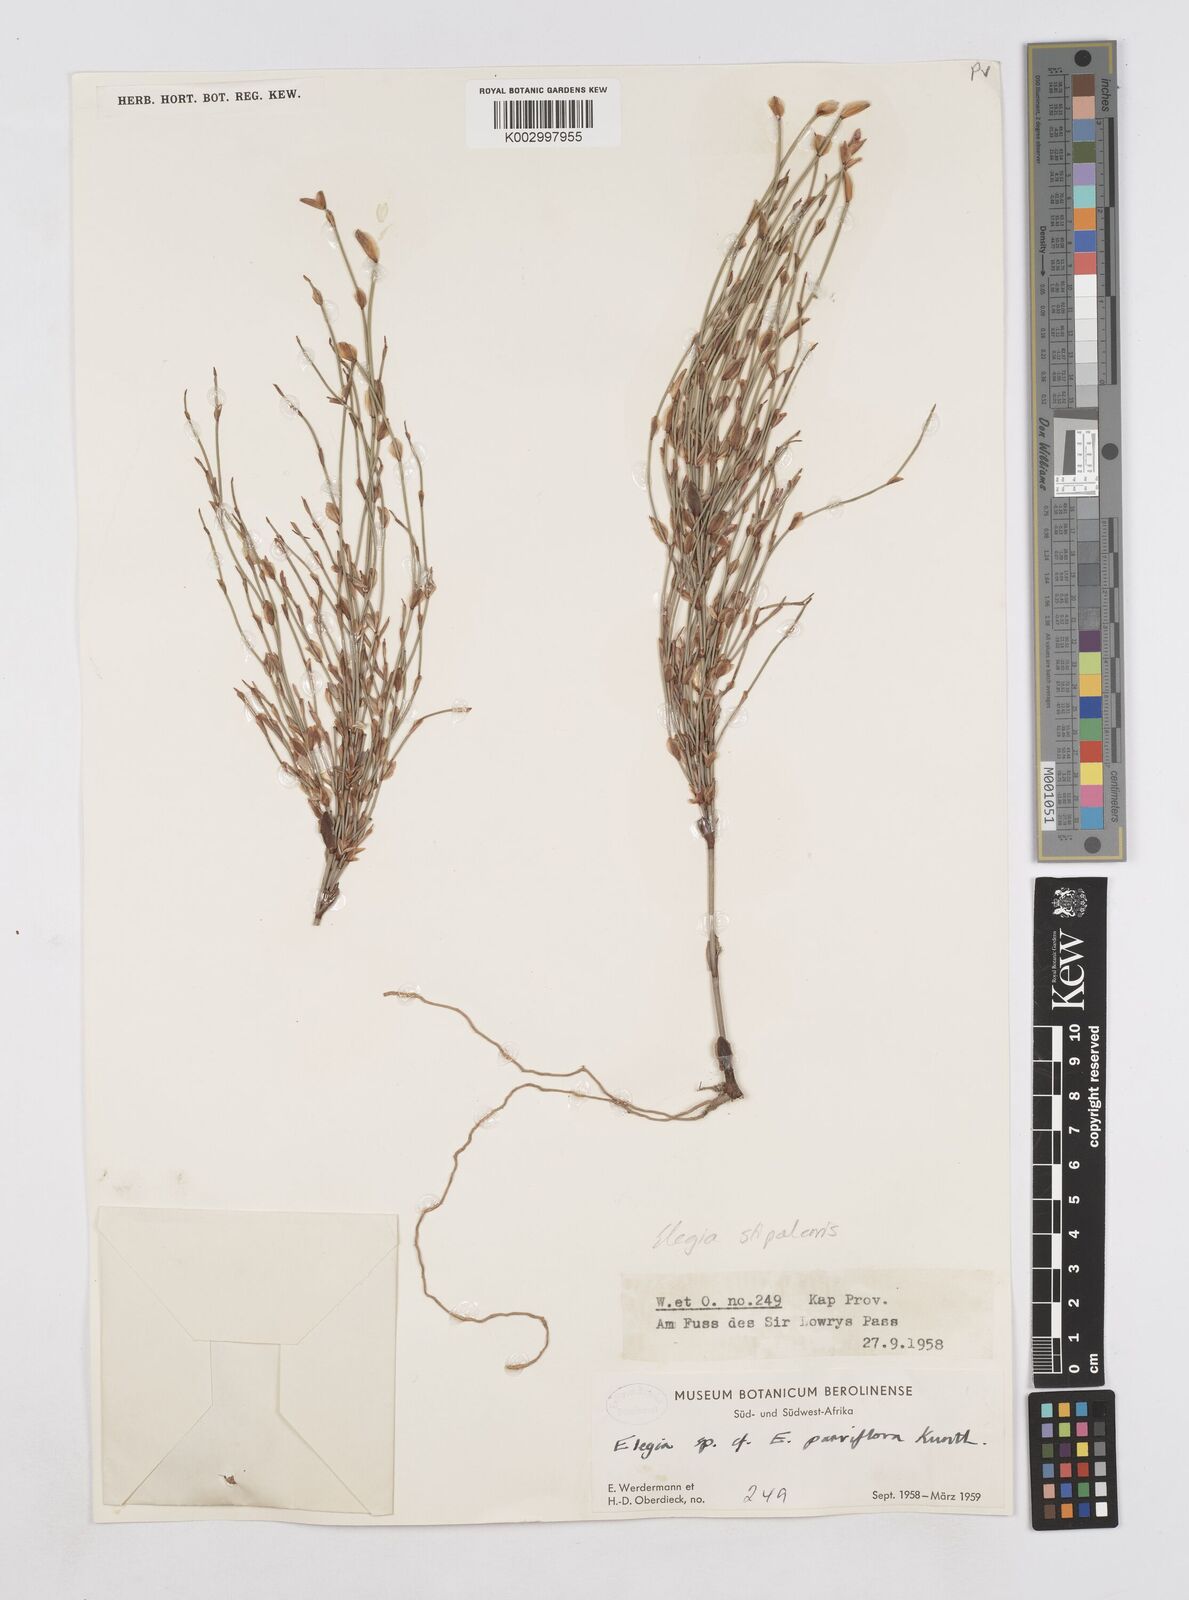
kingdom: Plantae
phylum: Tracheophyta
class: Liliopsida
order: Poales
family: Restionaceae
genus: Elegia
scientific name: Elegia stipularis
